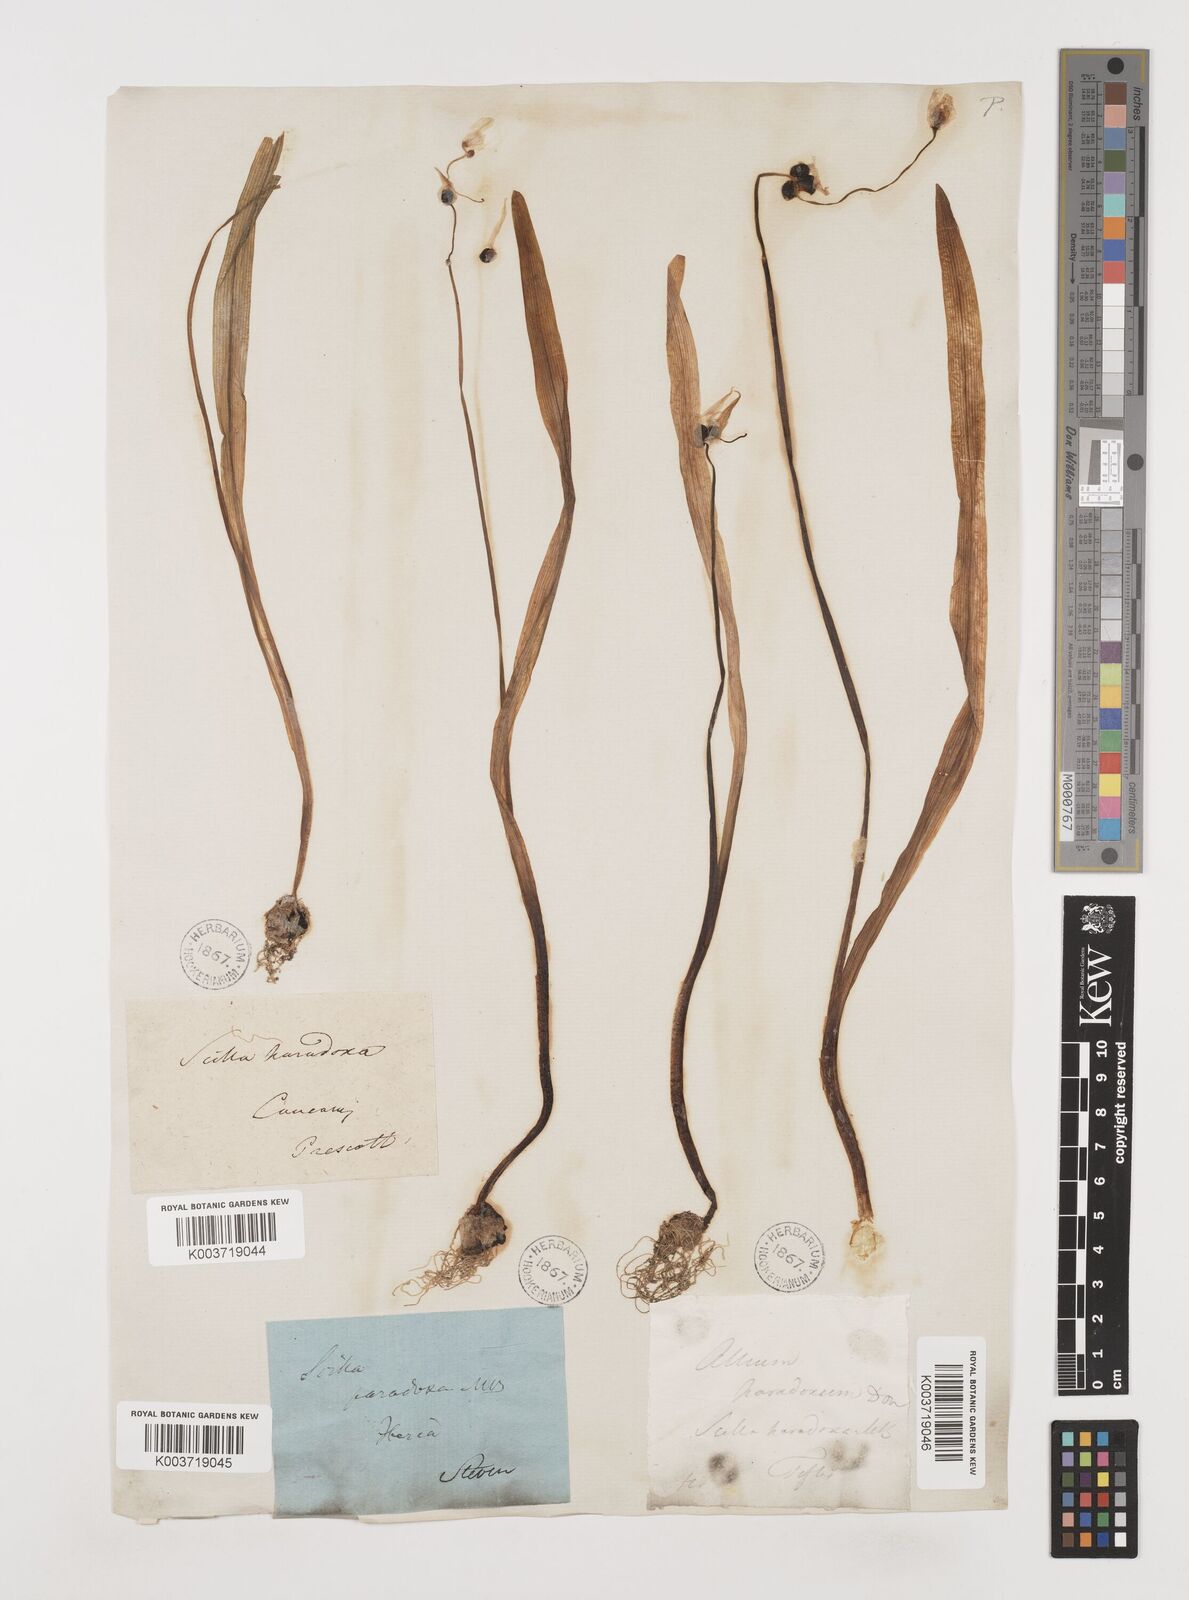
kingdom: Plantae
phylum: Tracheophyta
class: Liliopsida
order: Asparagales
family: Amaryllidaceae
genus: Allium
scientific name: Allium paradoxum
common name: Few-flowered garlic
